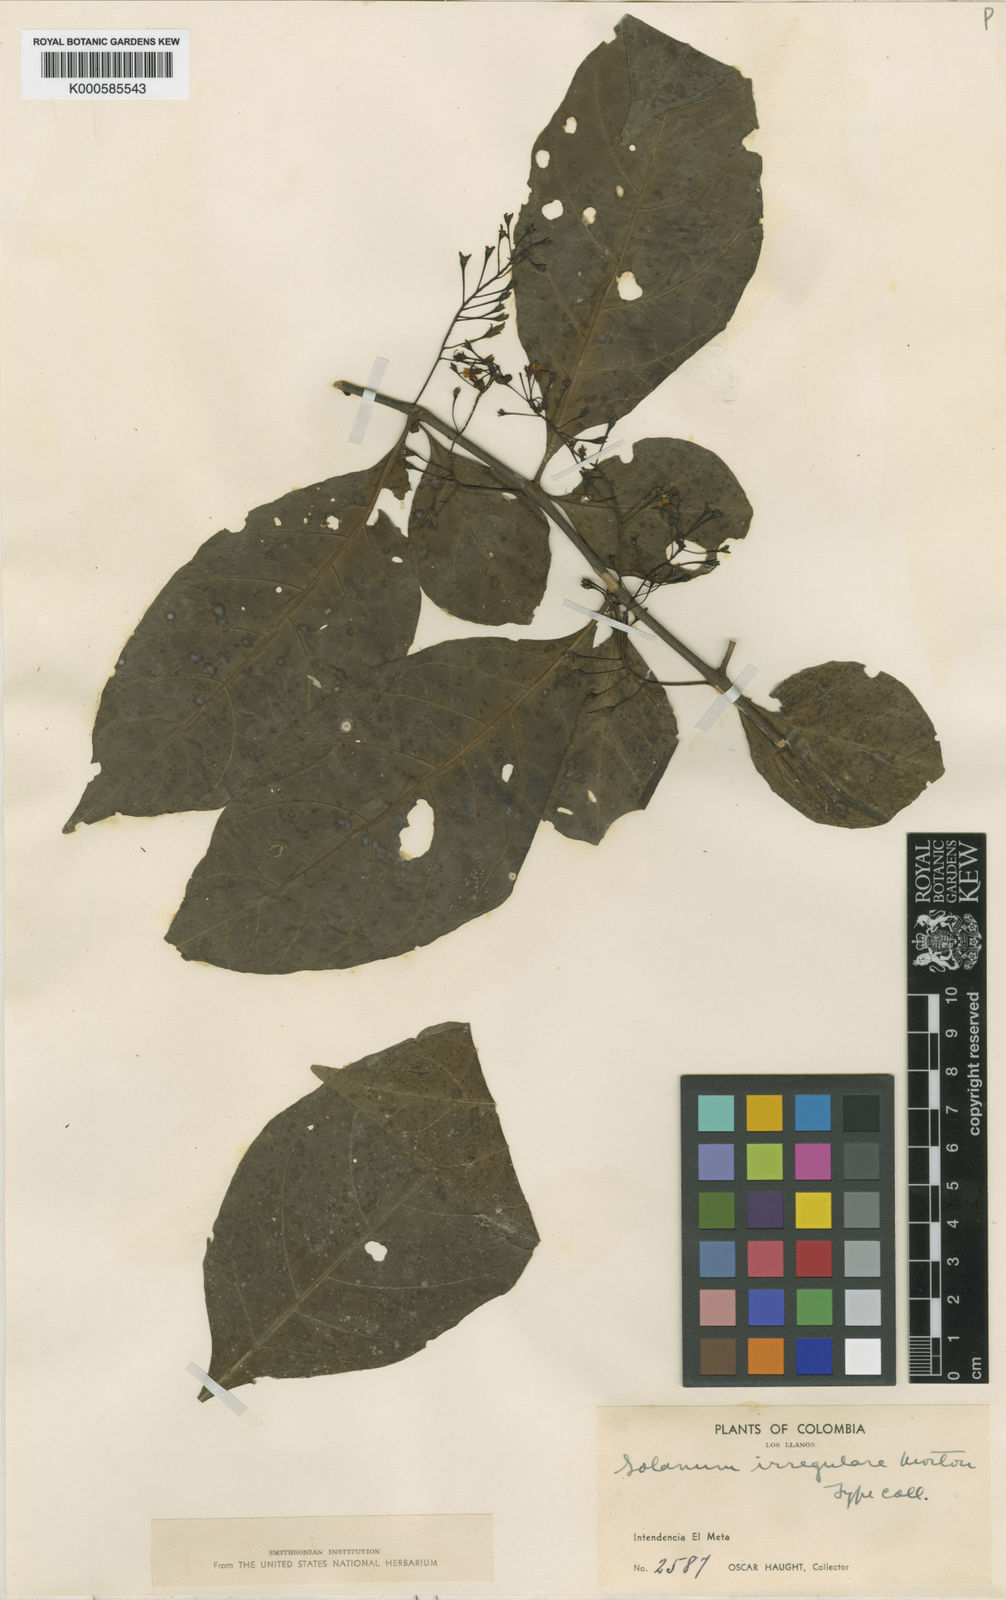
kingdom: Plantae
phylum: Tracheophyta
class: Magnoliopsida
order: Solanales
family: Solanaceae
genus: Solanum
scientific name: Solanum irregulare
